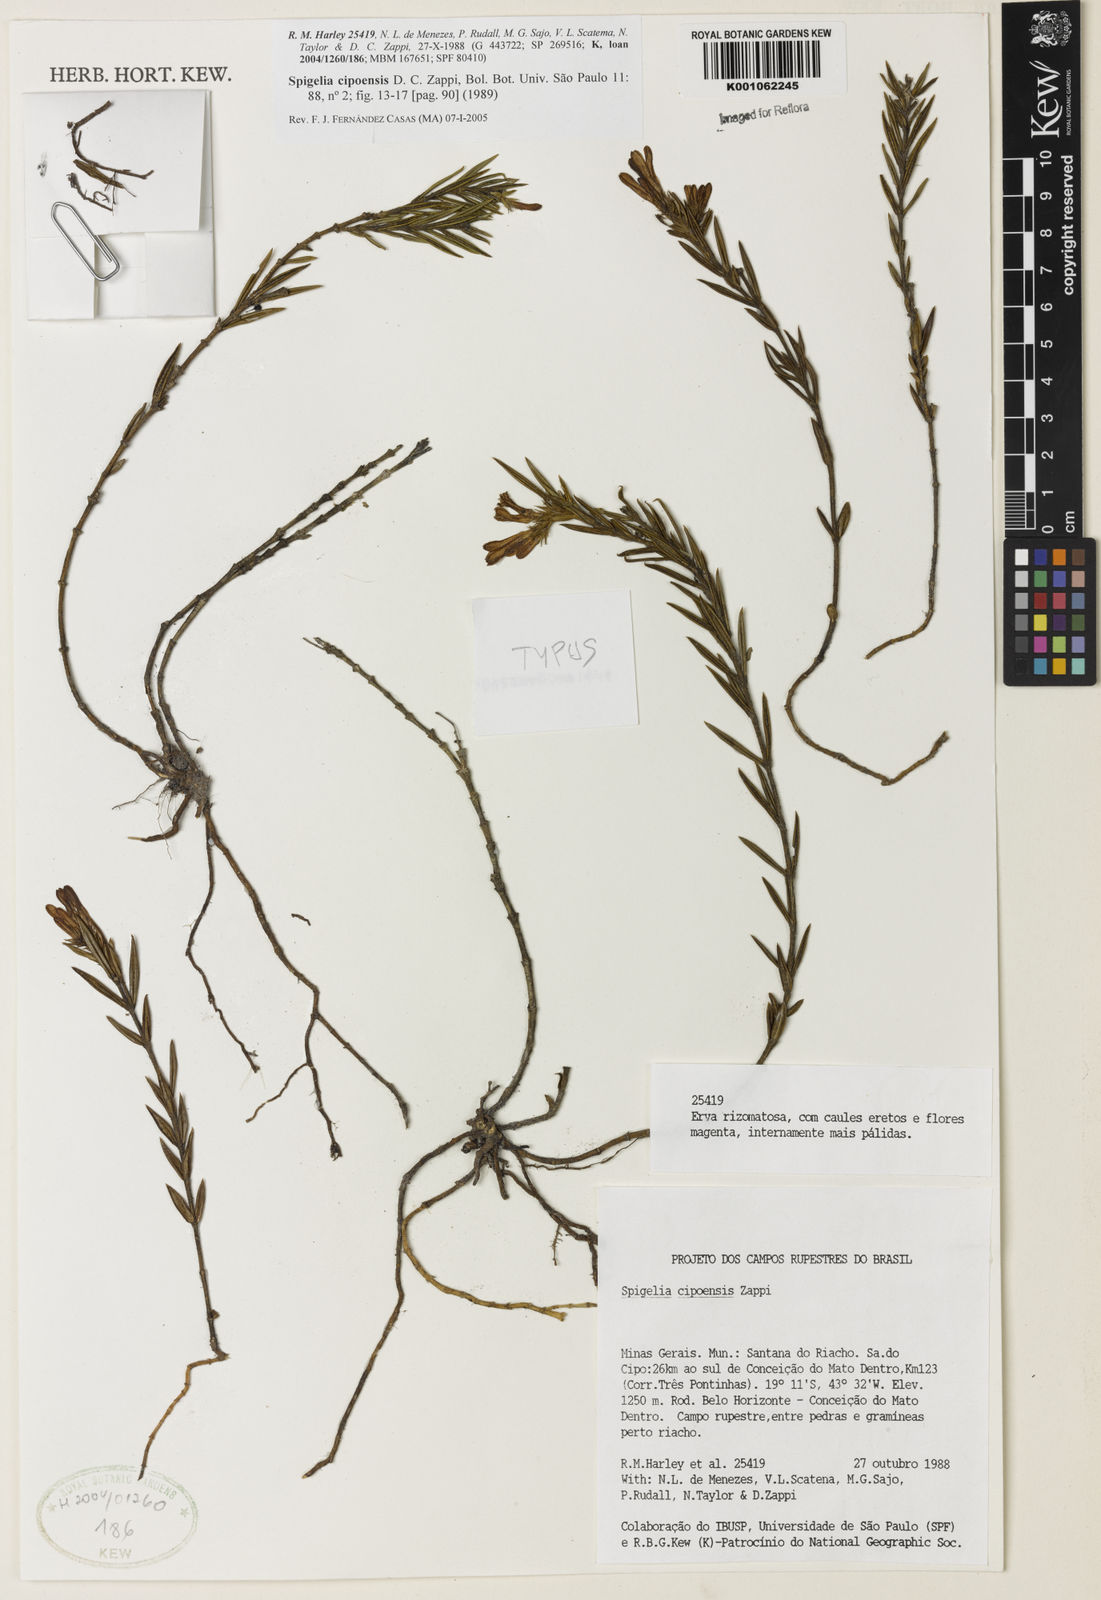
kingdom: Plantae
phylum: Tracheophyta
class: Magnoliopsida
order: Gentianales
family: Loganiaceae
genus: Spigelia
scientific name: Spigelia cipoensis
